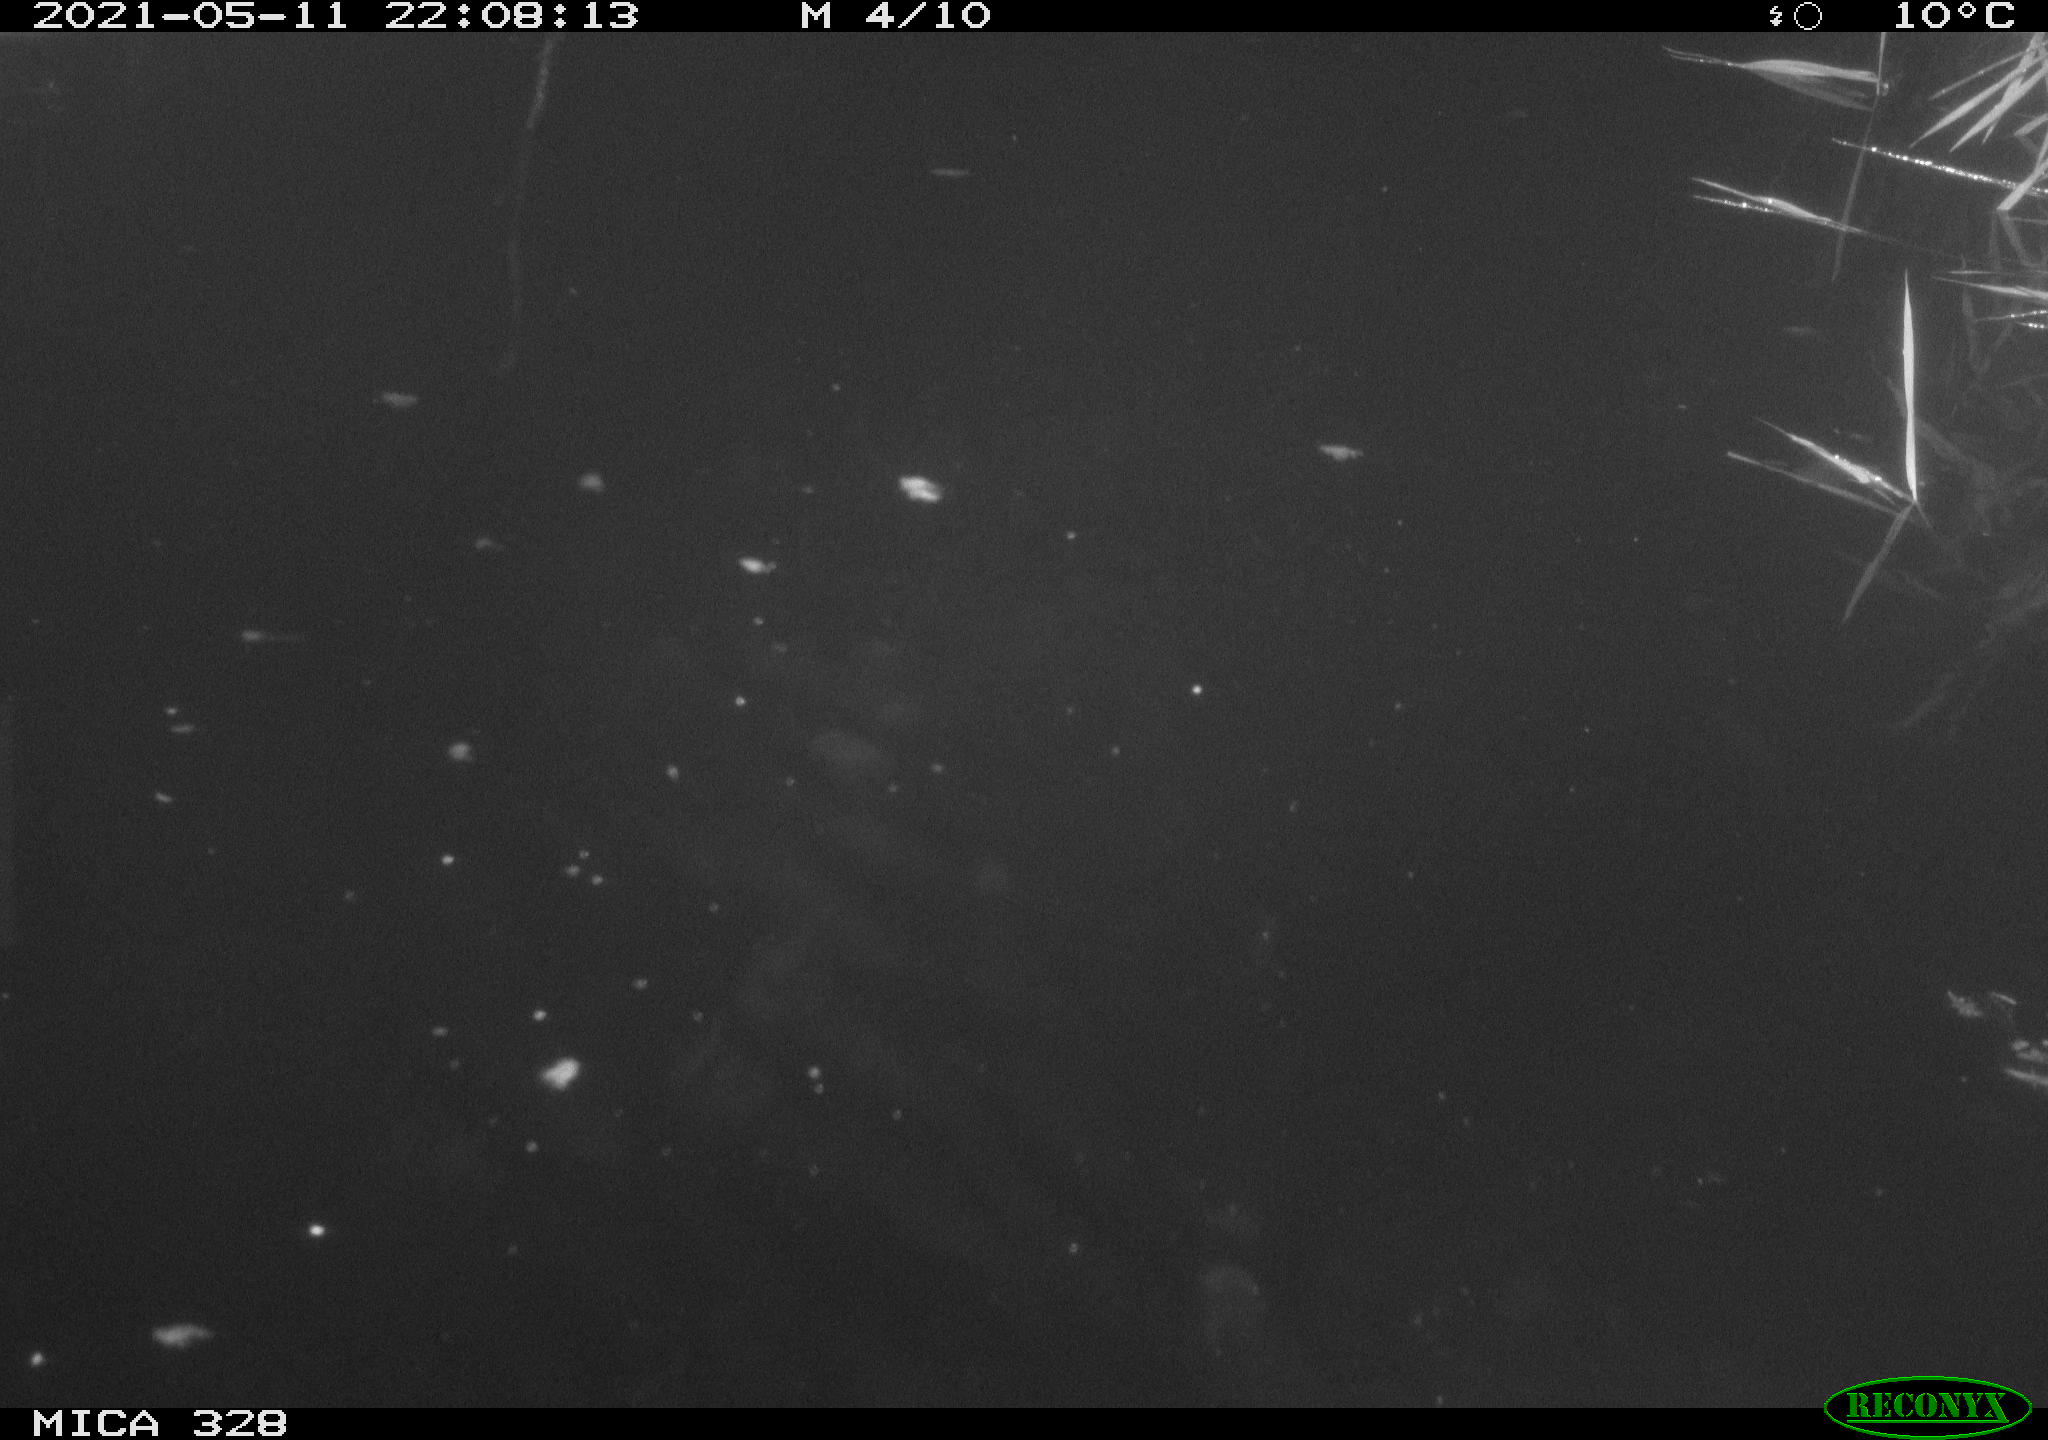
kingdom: Animalia
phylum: Chordata
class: Aves
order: Anseriformes
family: Anatidae
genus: Anas
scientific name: Anas platyrhynchos
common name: Mallard
